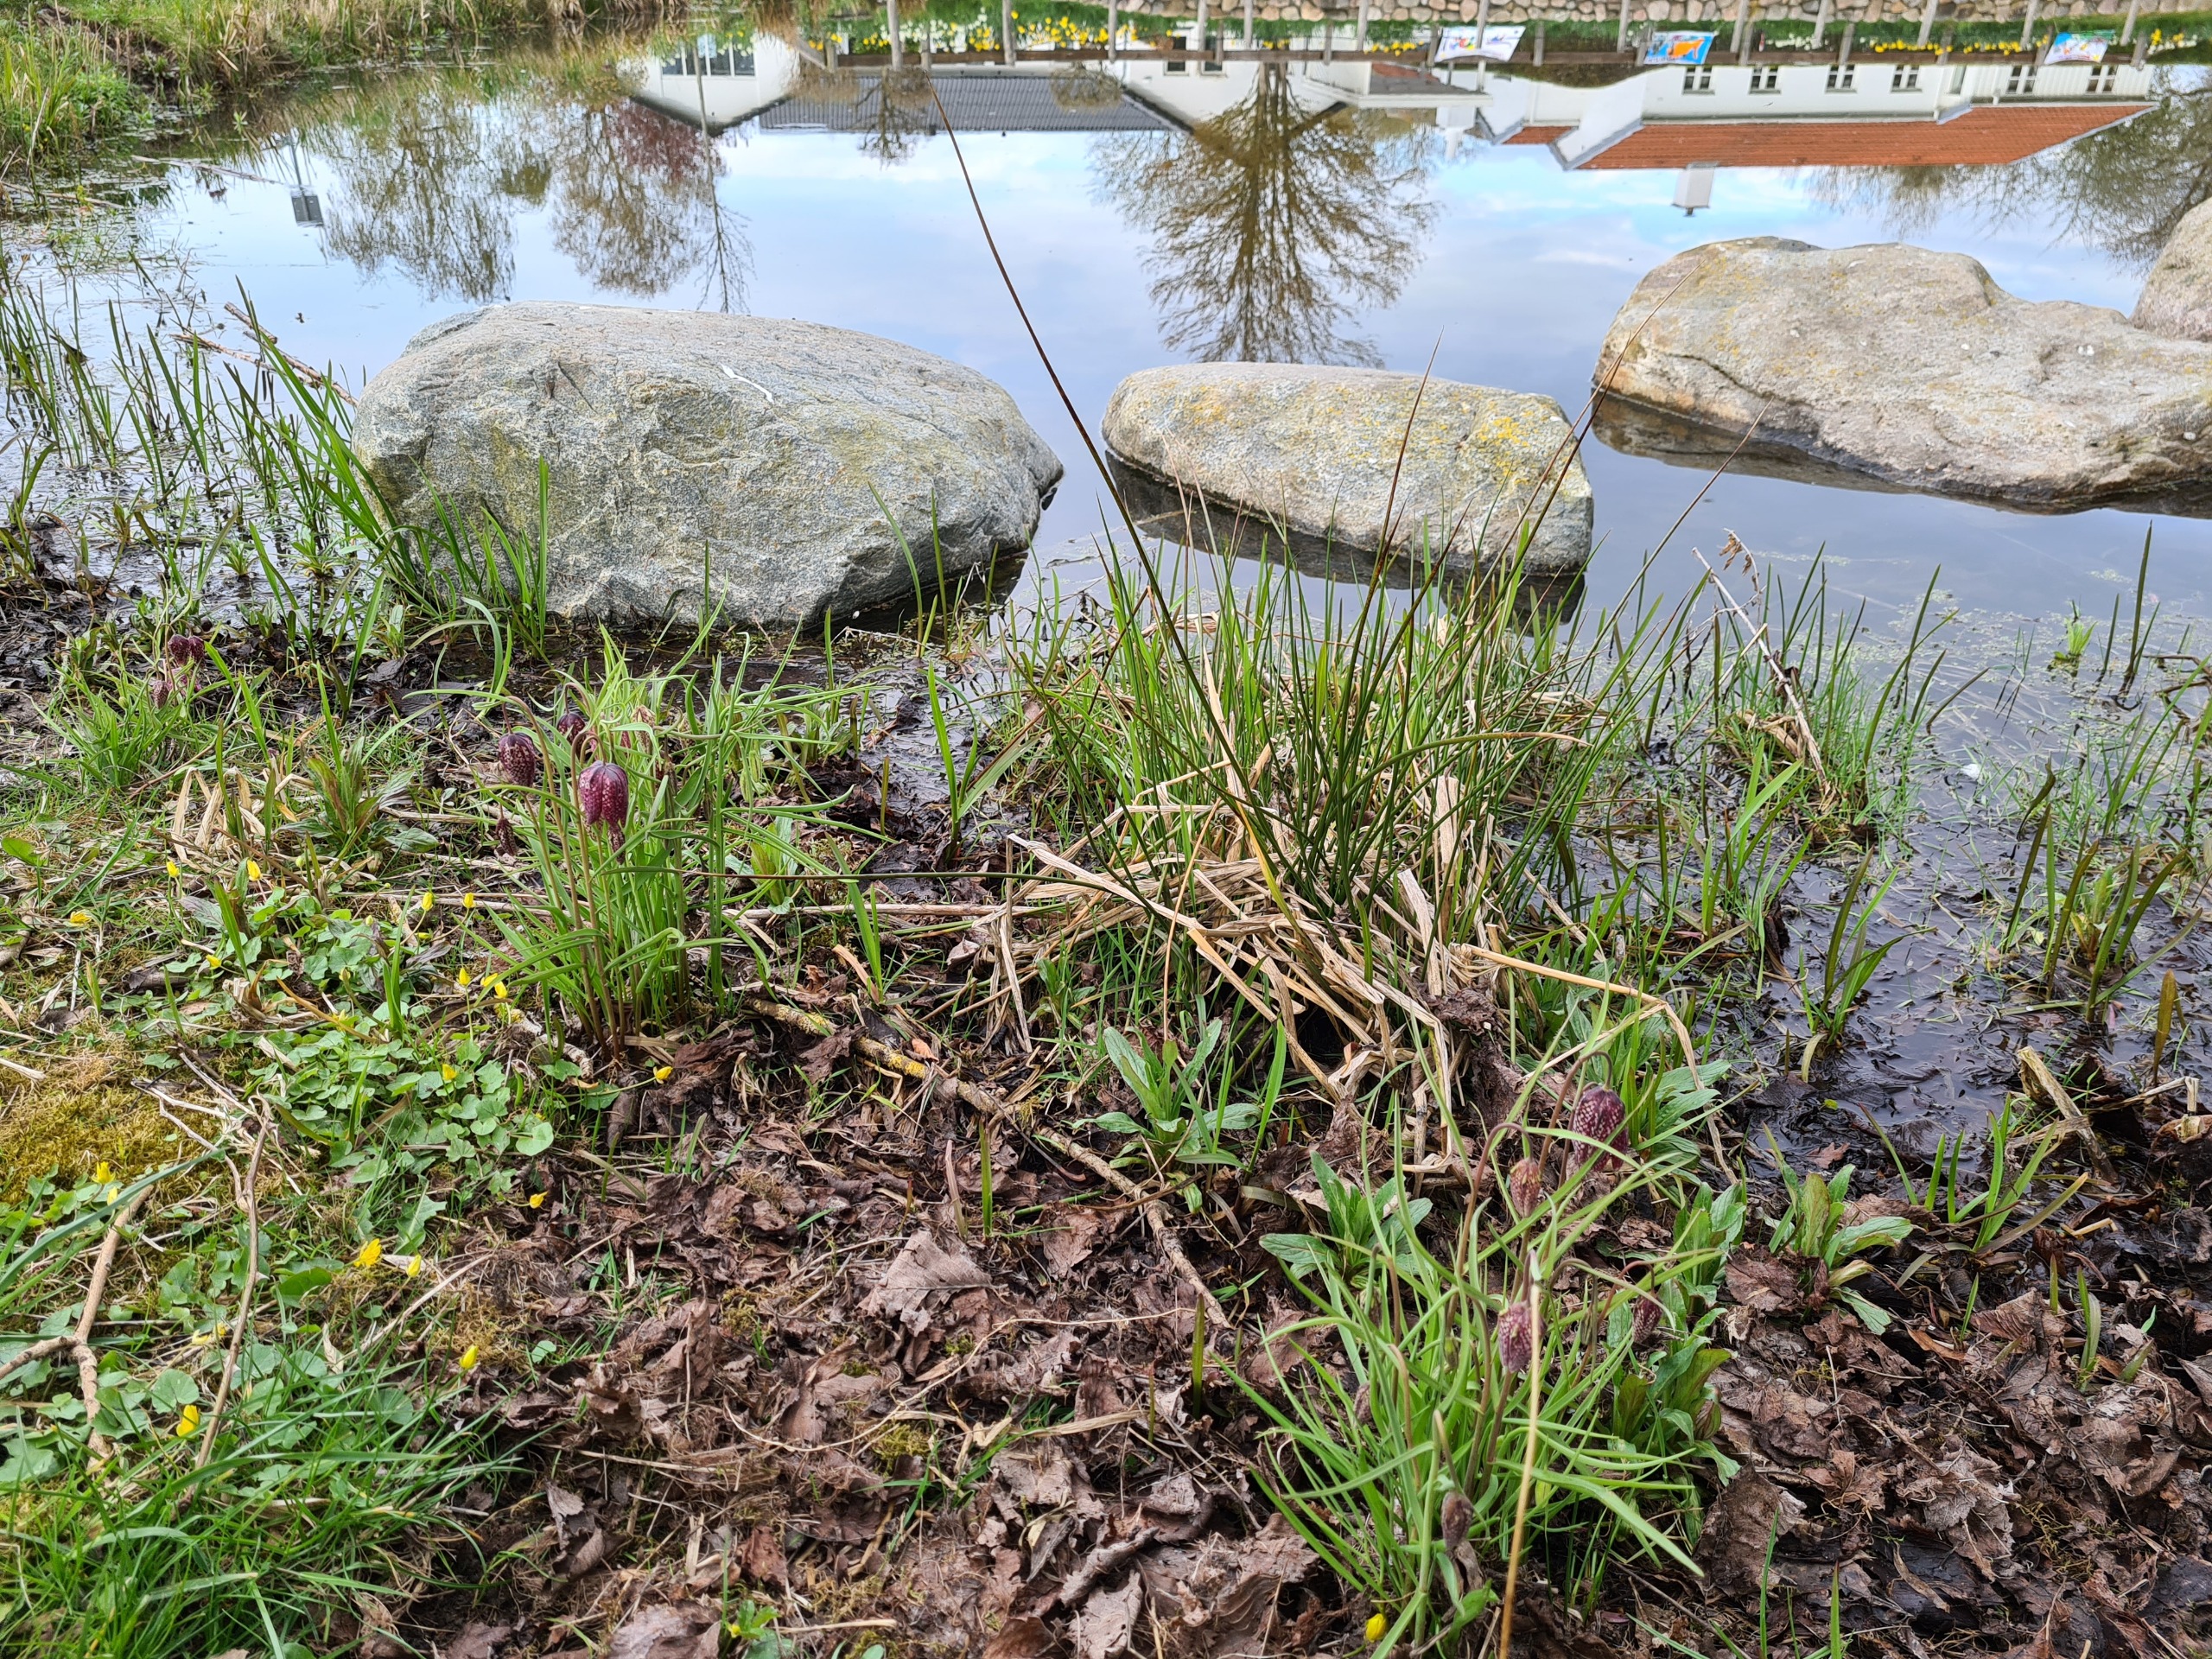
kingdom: Plantae
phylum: Tracheophyta
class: Liliopsida
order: Liliales
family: Liliaceae
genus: Fritillaria
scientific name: Fritillaria meleagris
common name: Vibeæg
